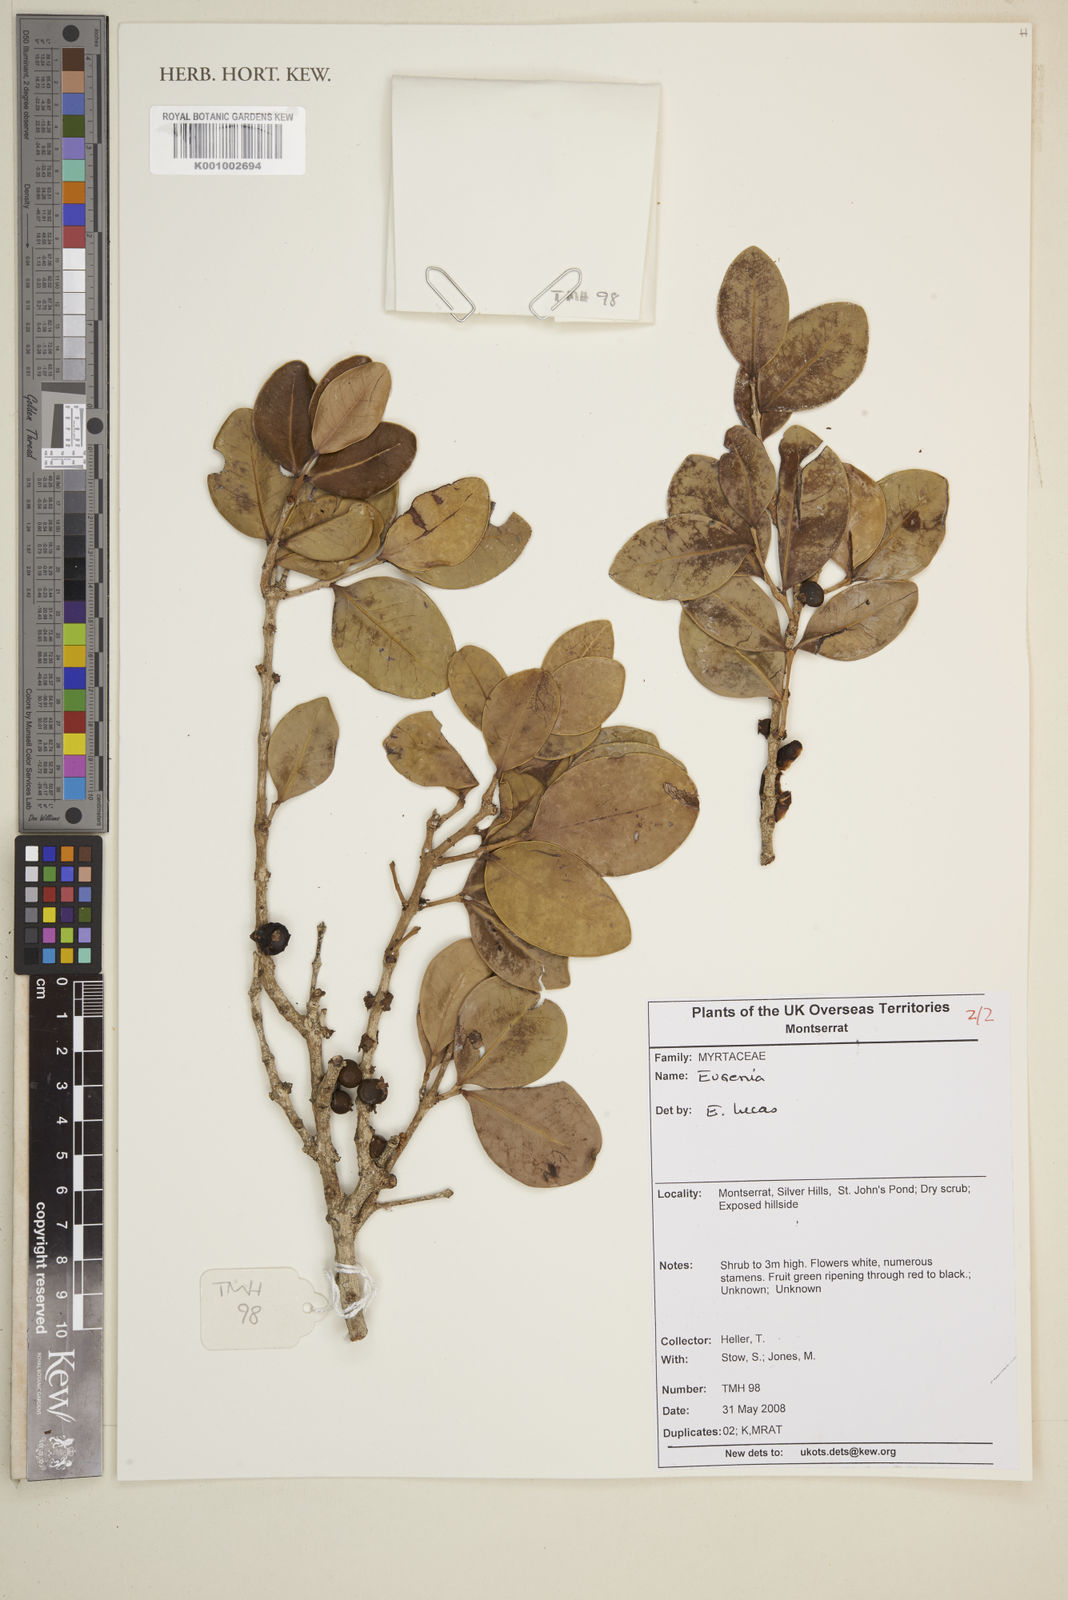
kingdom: Plantae
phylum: Tracheophyta
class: Magnoliopsida
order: Myrtales
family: Myrtaceae
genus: Eugenia
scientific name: Eugenia
